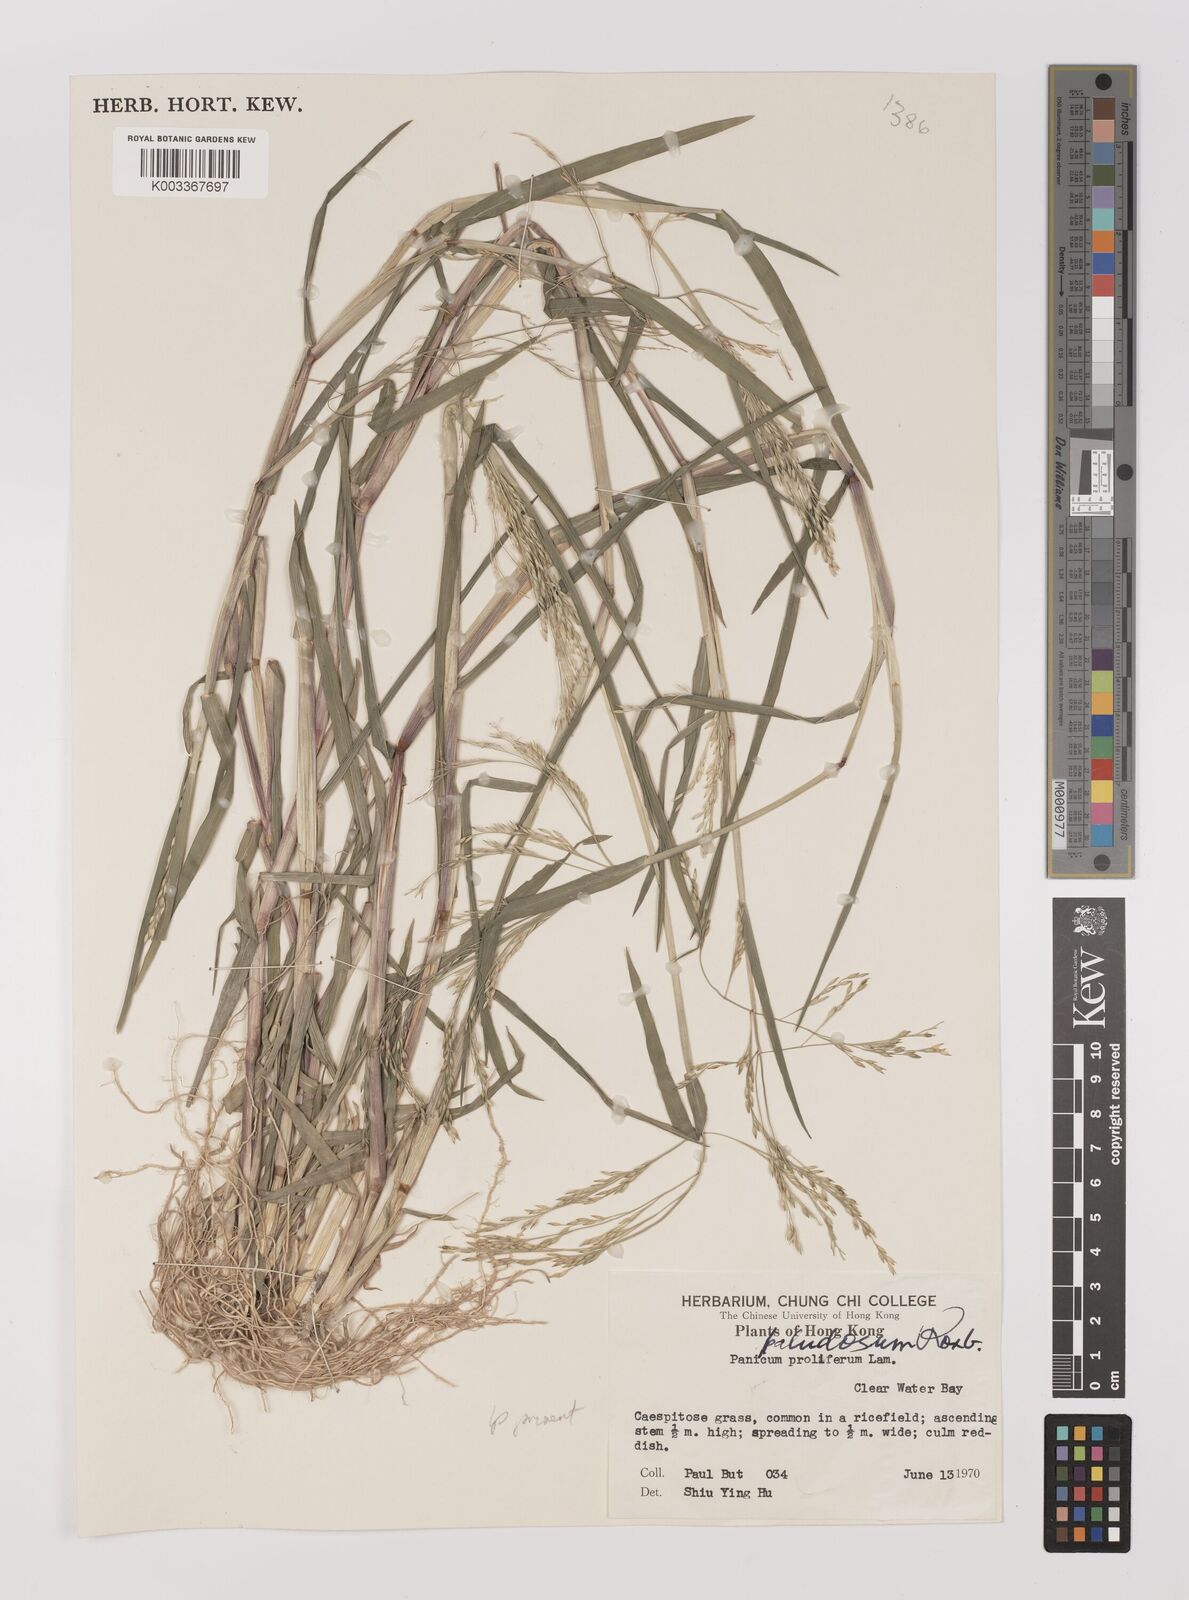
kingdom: Plantae
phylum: Tracheophyta
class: Liliopsida
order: Poales
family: Poaceae
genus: Panicum
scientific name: Panicum dichotomiflorum
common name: Autumn millet
